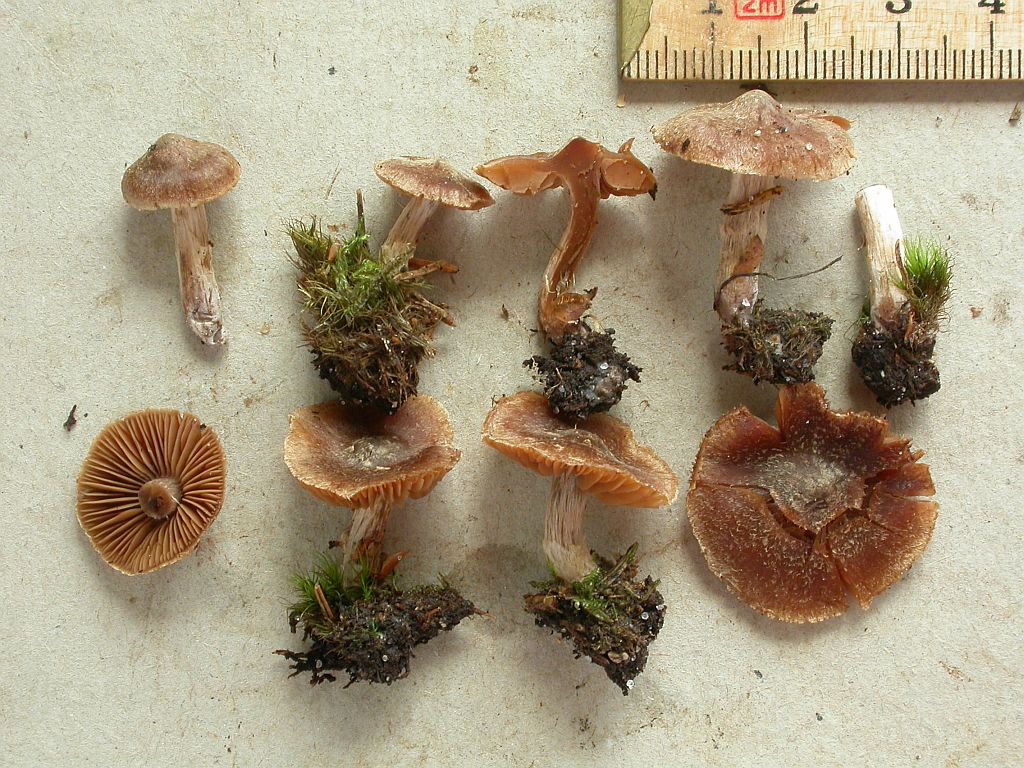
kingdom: Fungi
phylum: Basidiomycota
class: Agaricomycetes
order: Agaricales
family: Cortinariaceae
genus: Cortinarius
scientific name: Cortinarius pinisquamulosus
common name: finskællet slørhat
